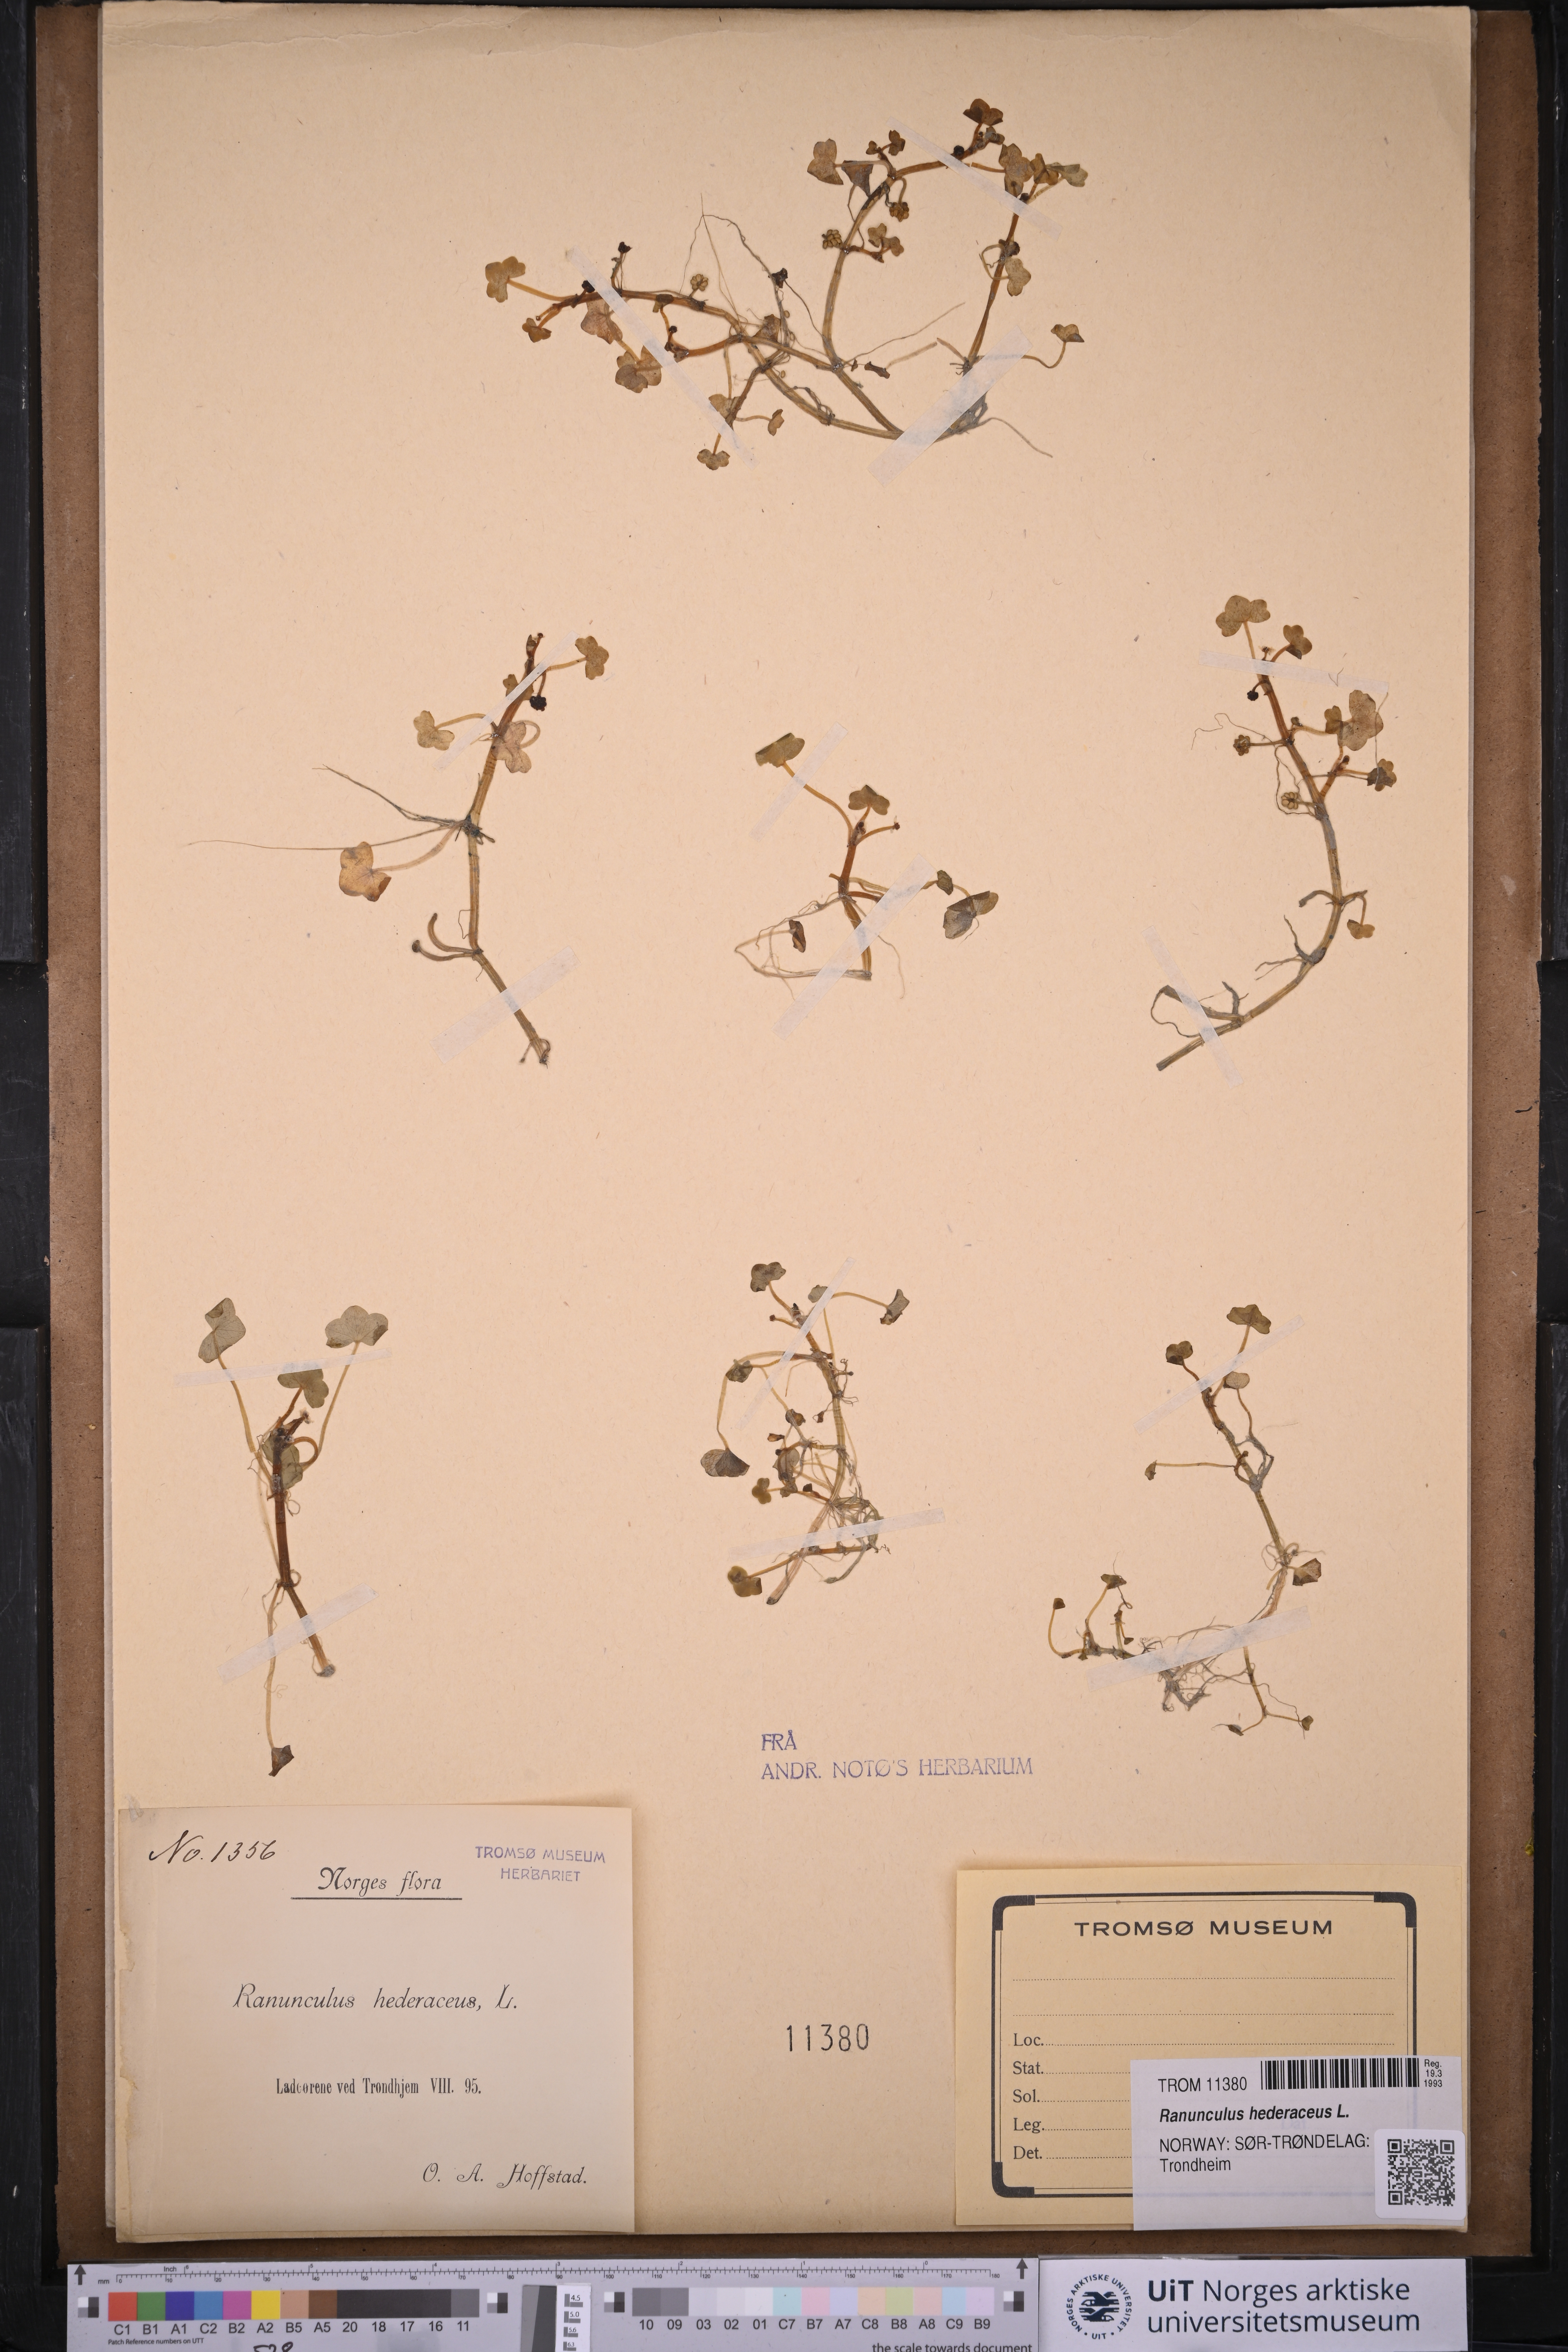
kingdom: Plantae
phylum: Tracheophyta
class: Magnoliopsida
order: Ranunculales
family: Ranunculaceae
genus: Ranunculus
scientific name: Ranunculus hederaceus
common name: Ivy-leaved crowfoot
